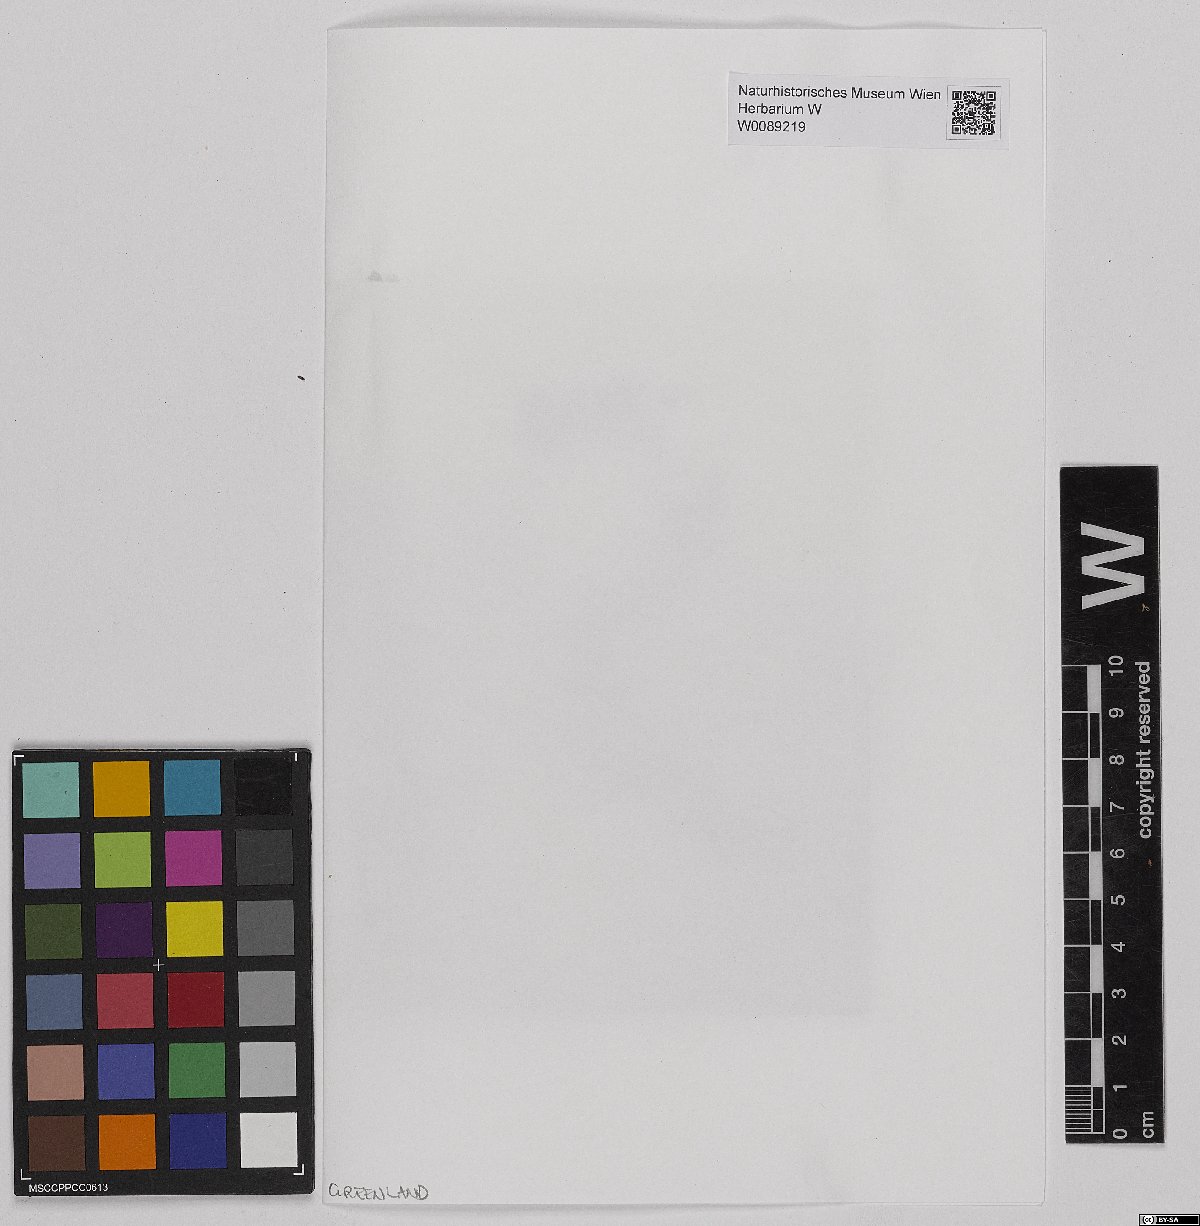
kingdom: Plantae
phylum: Bryophyta
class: Sphagnopsida
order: Sphagnales
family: Sphagnaceae
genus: Sphagnum
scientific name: Sphagnum lindbergii
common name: Lindberg's peat moss
